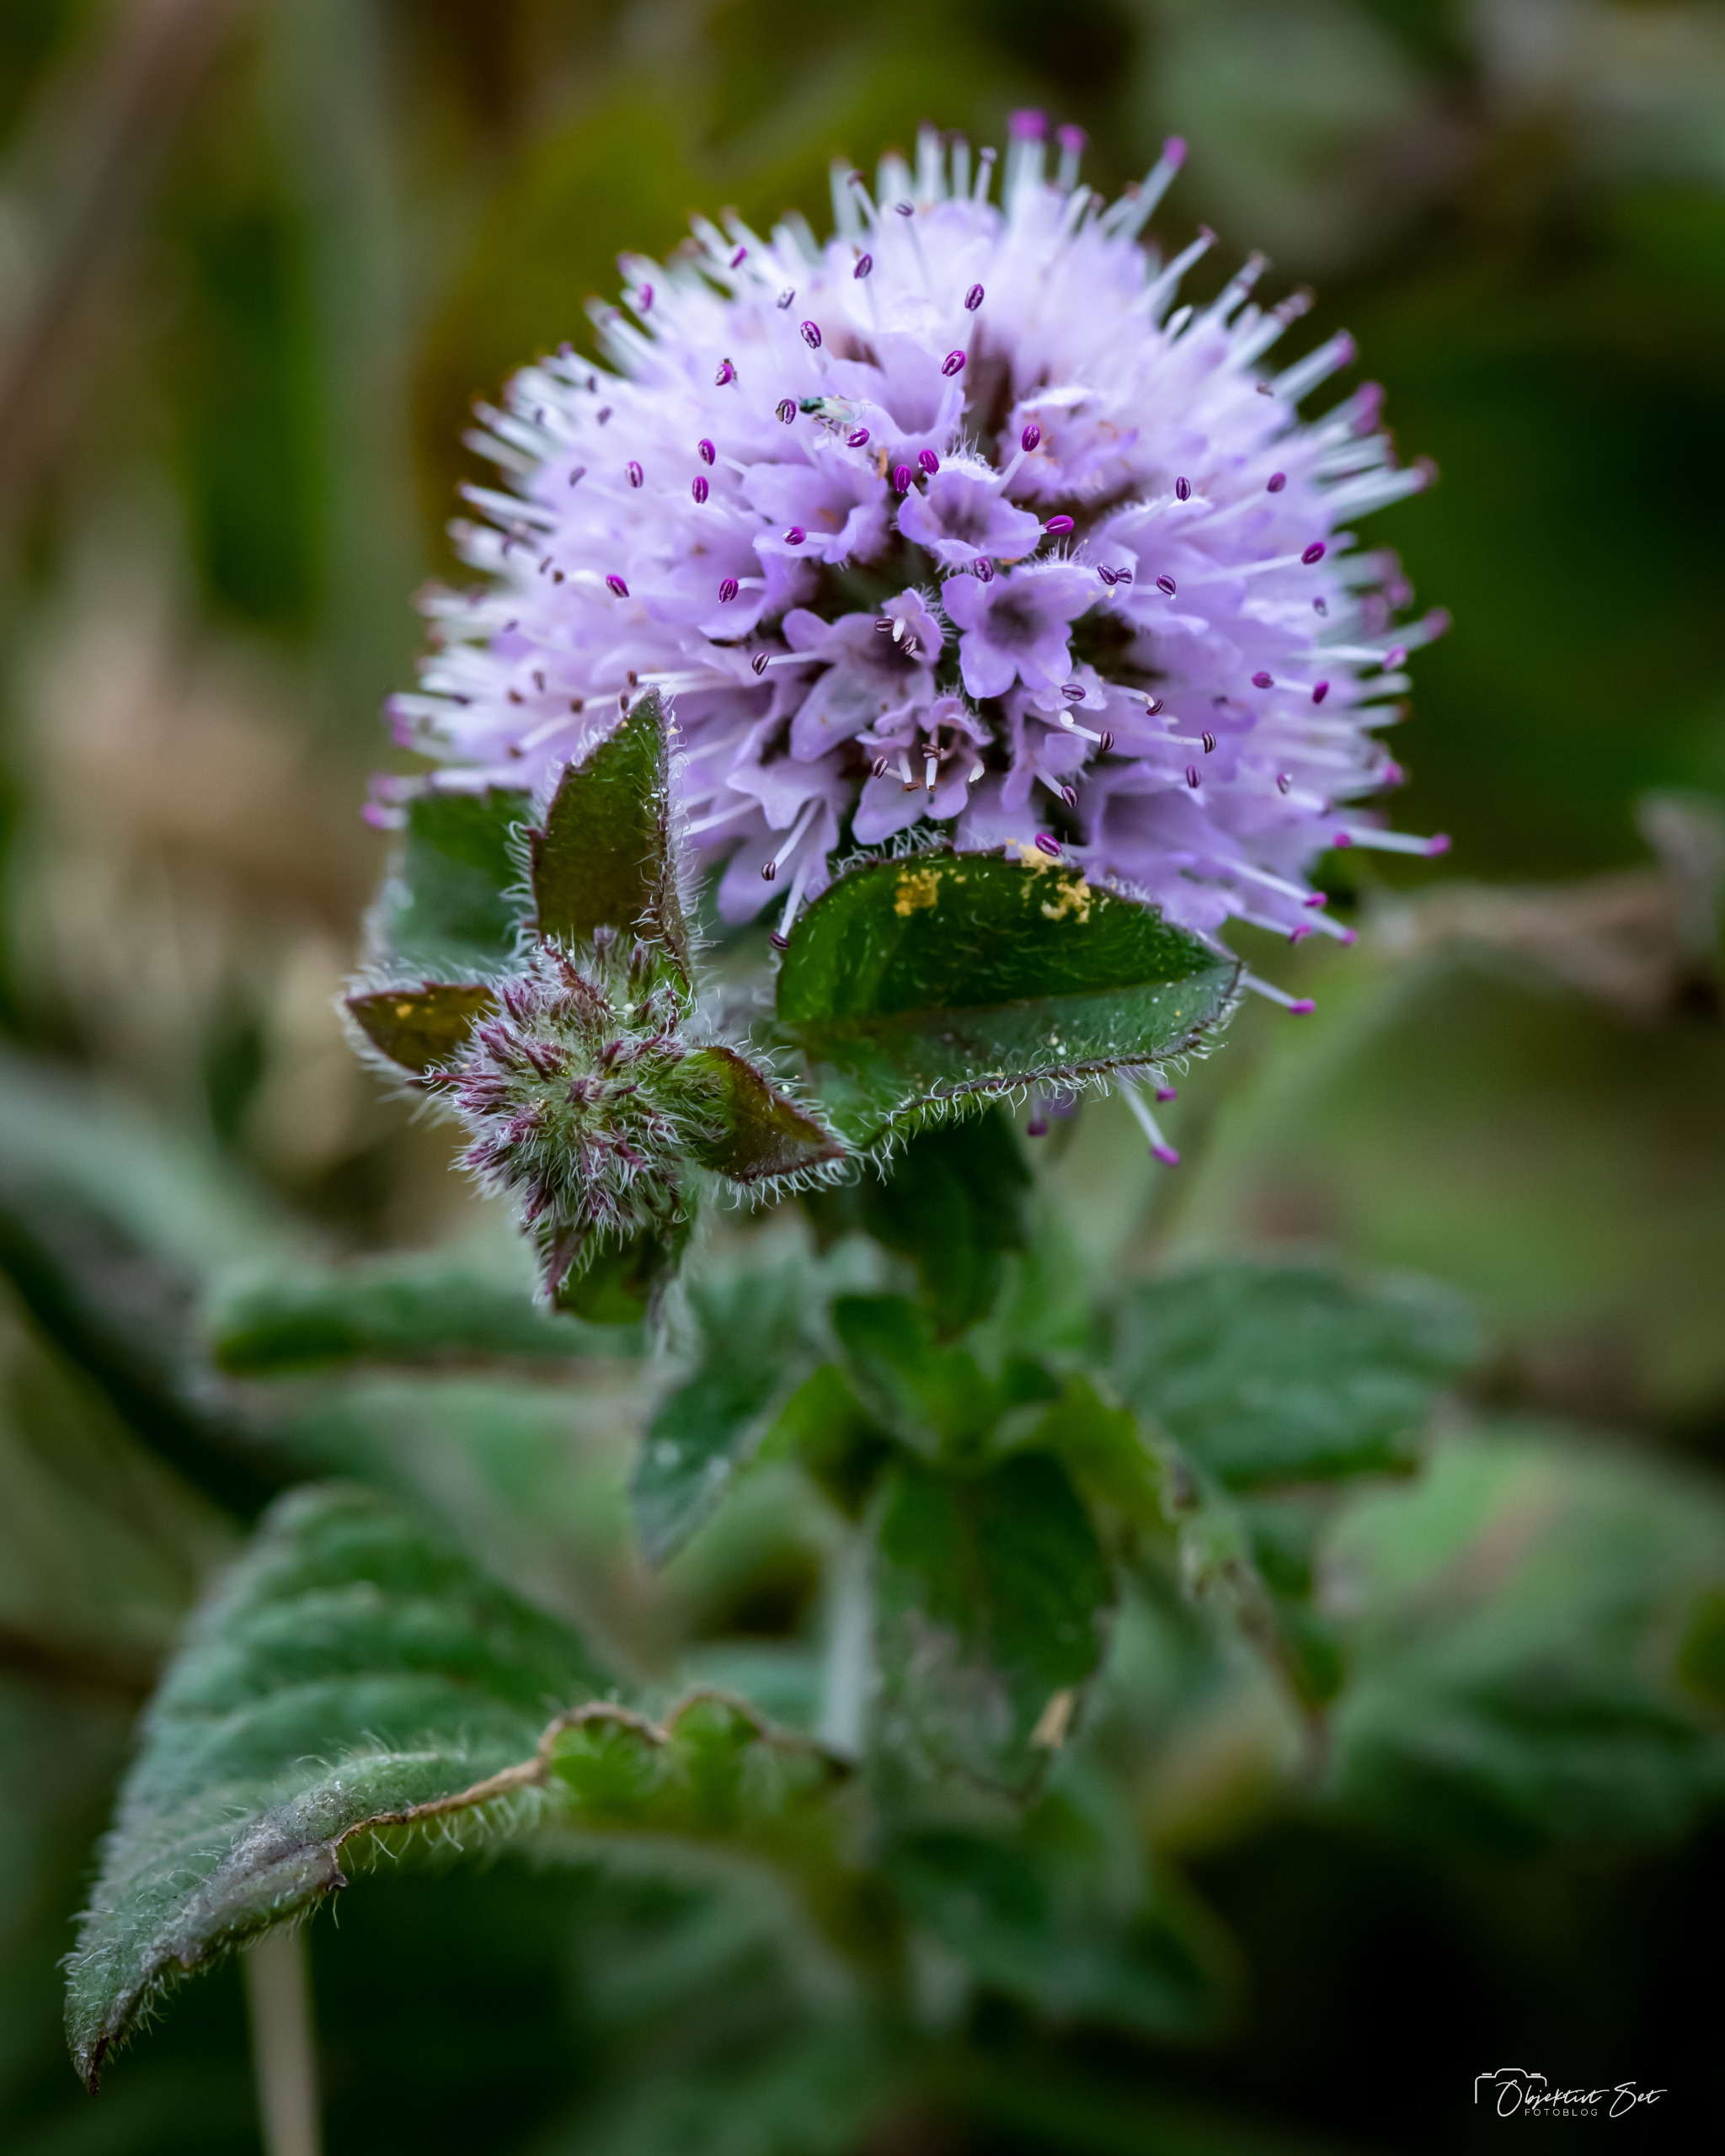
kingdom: Plantae
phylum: Tracheophyta
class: Magnoliopsida
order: Lamiales
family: Lamiaceae
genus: Mentha
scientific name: Mentha aquatica
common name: Vand-mynte
